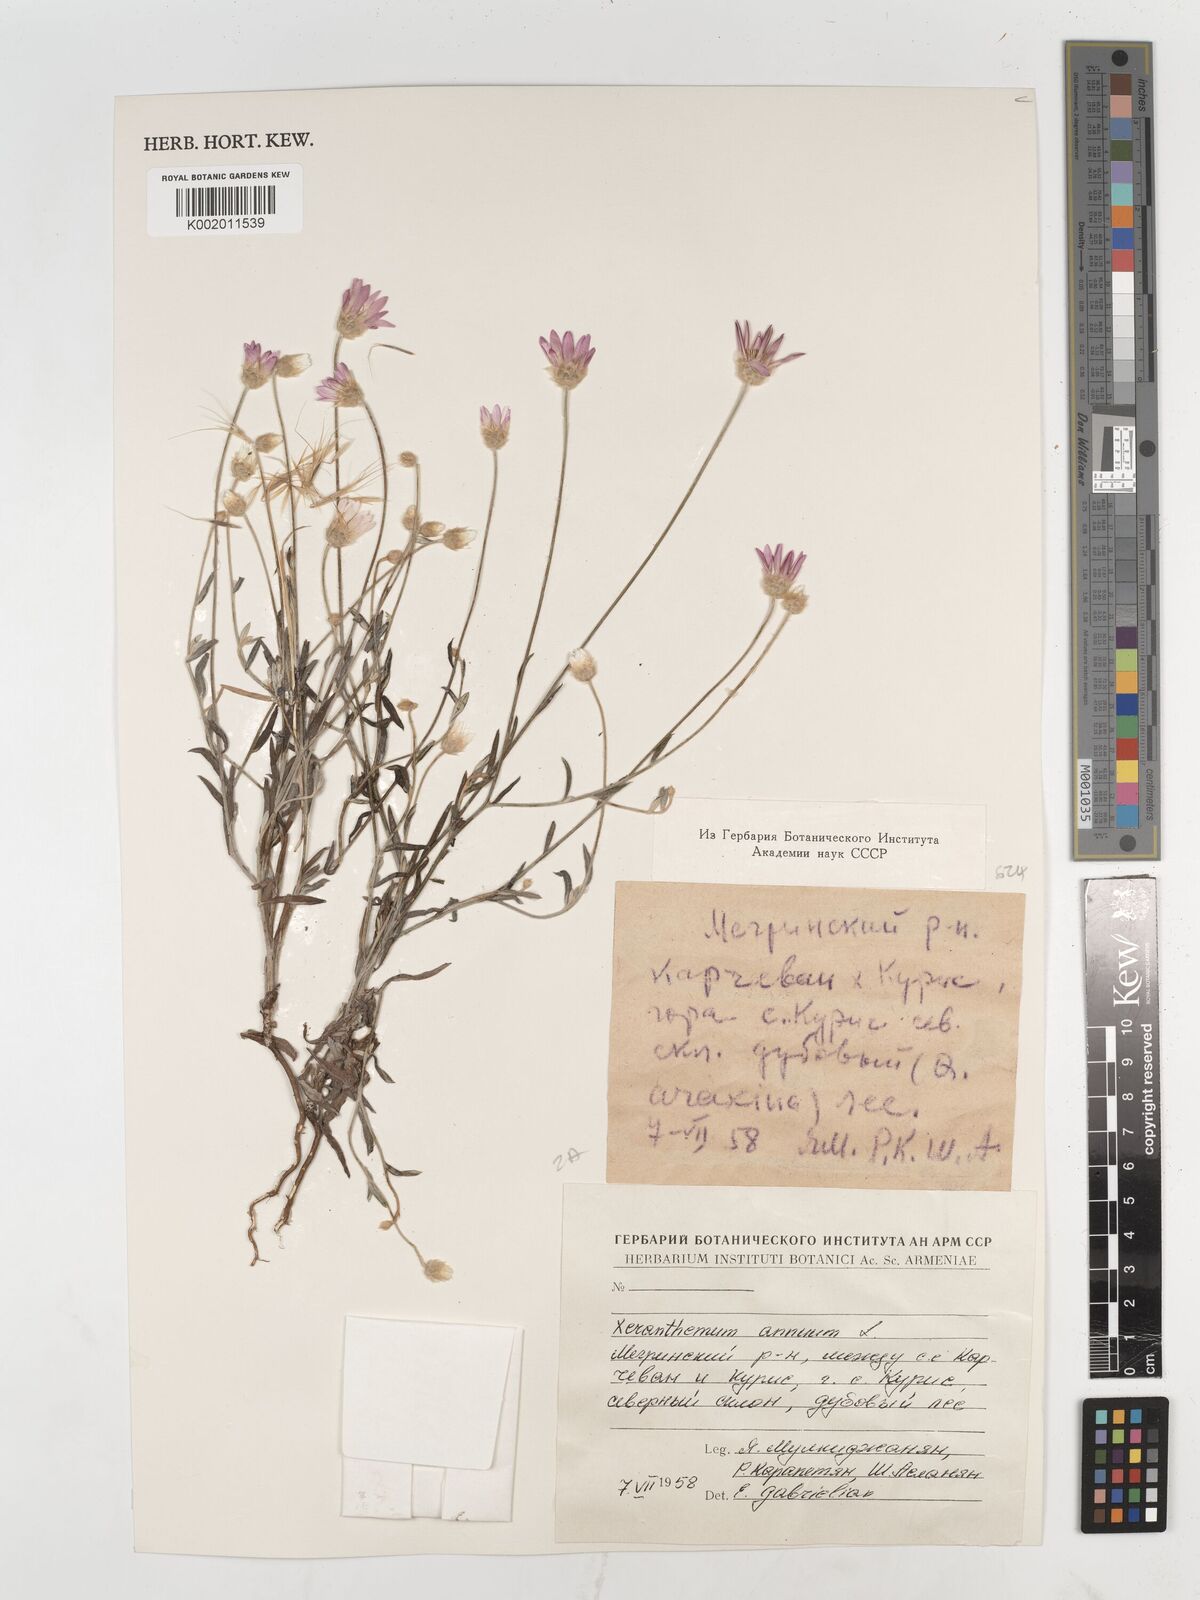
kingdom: Plantae
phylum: Tracheophyta
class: Magnoliopsida
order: Asterales
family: Asteraceae
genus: Xeranthemum
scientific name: Xeranthemum annuum
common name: Immortelle
